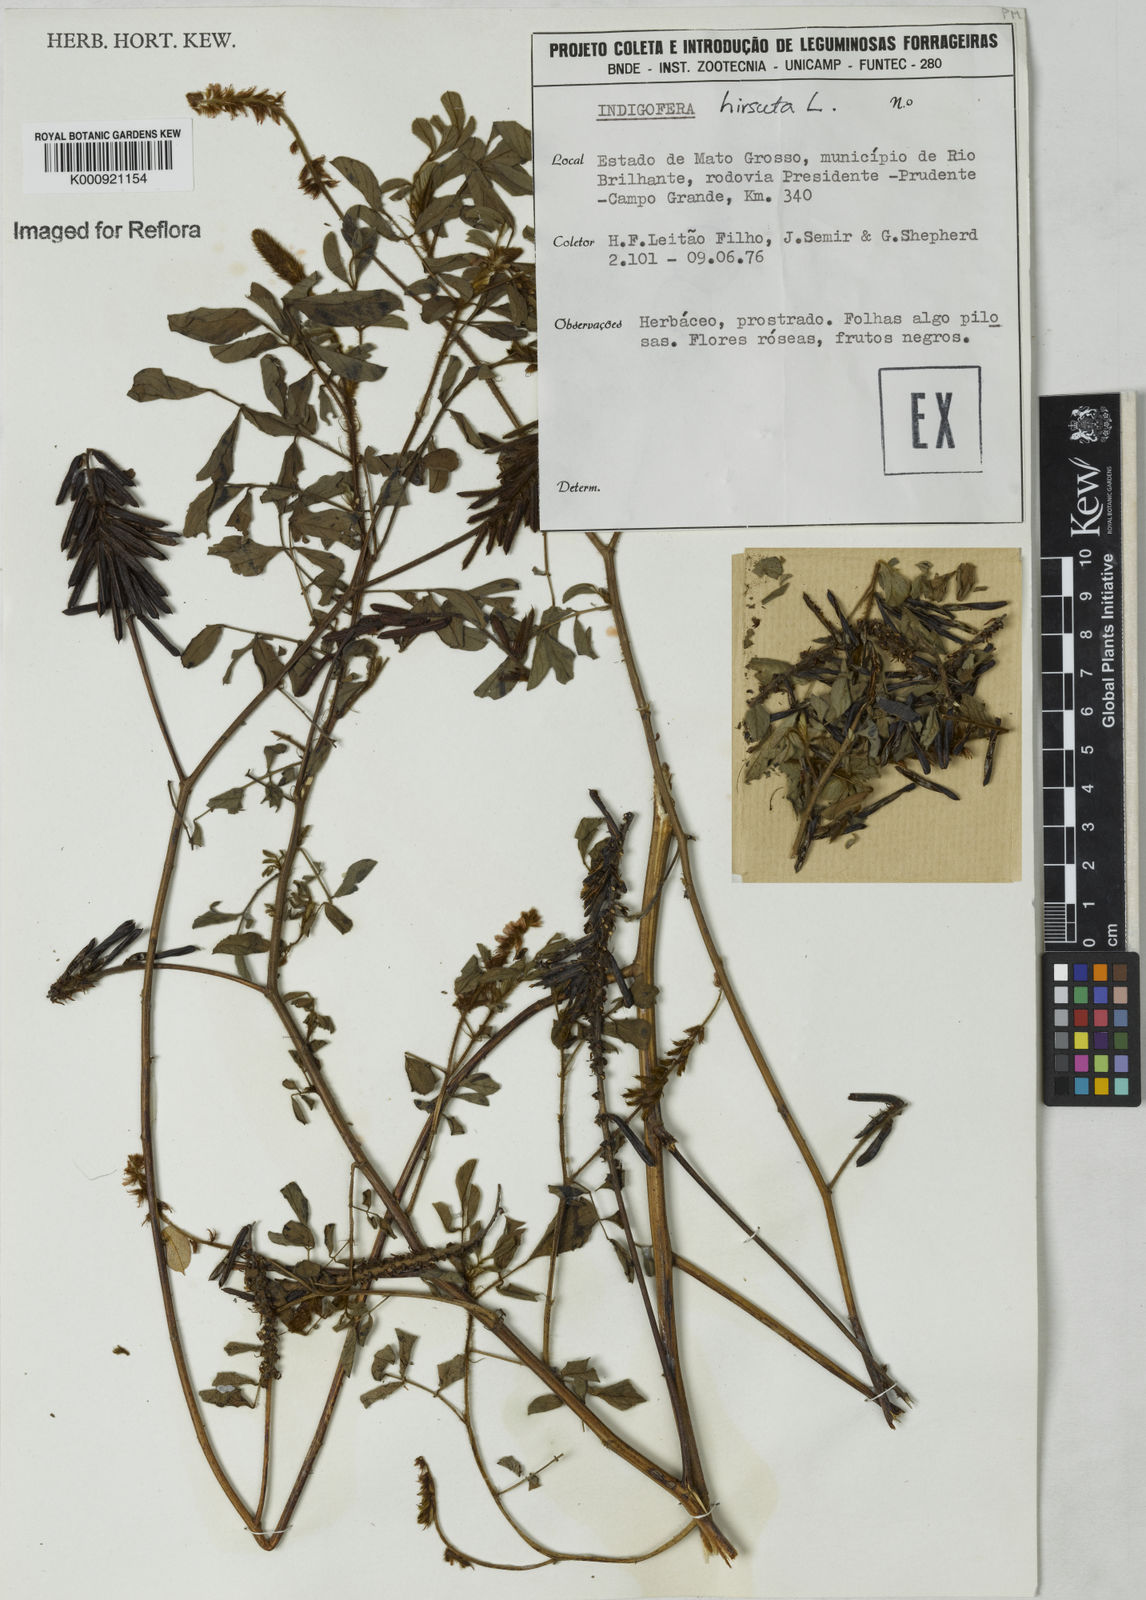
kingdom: Plantae
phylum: Tracheophyta
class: Magnoliopsida
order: Fabales
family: Fabaceae
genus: Indigofera
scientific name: Indigofera
